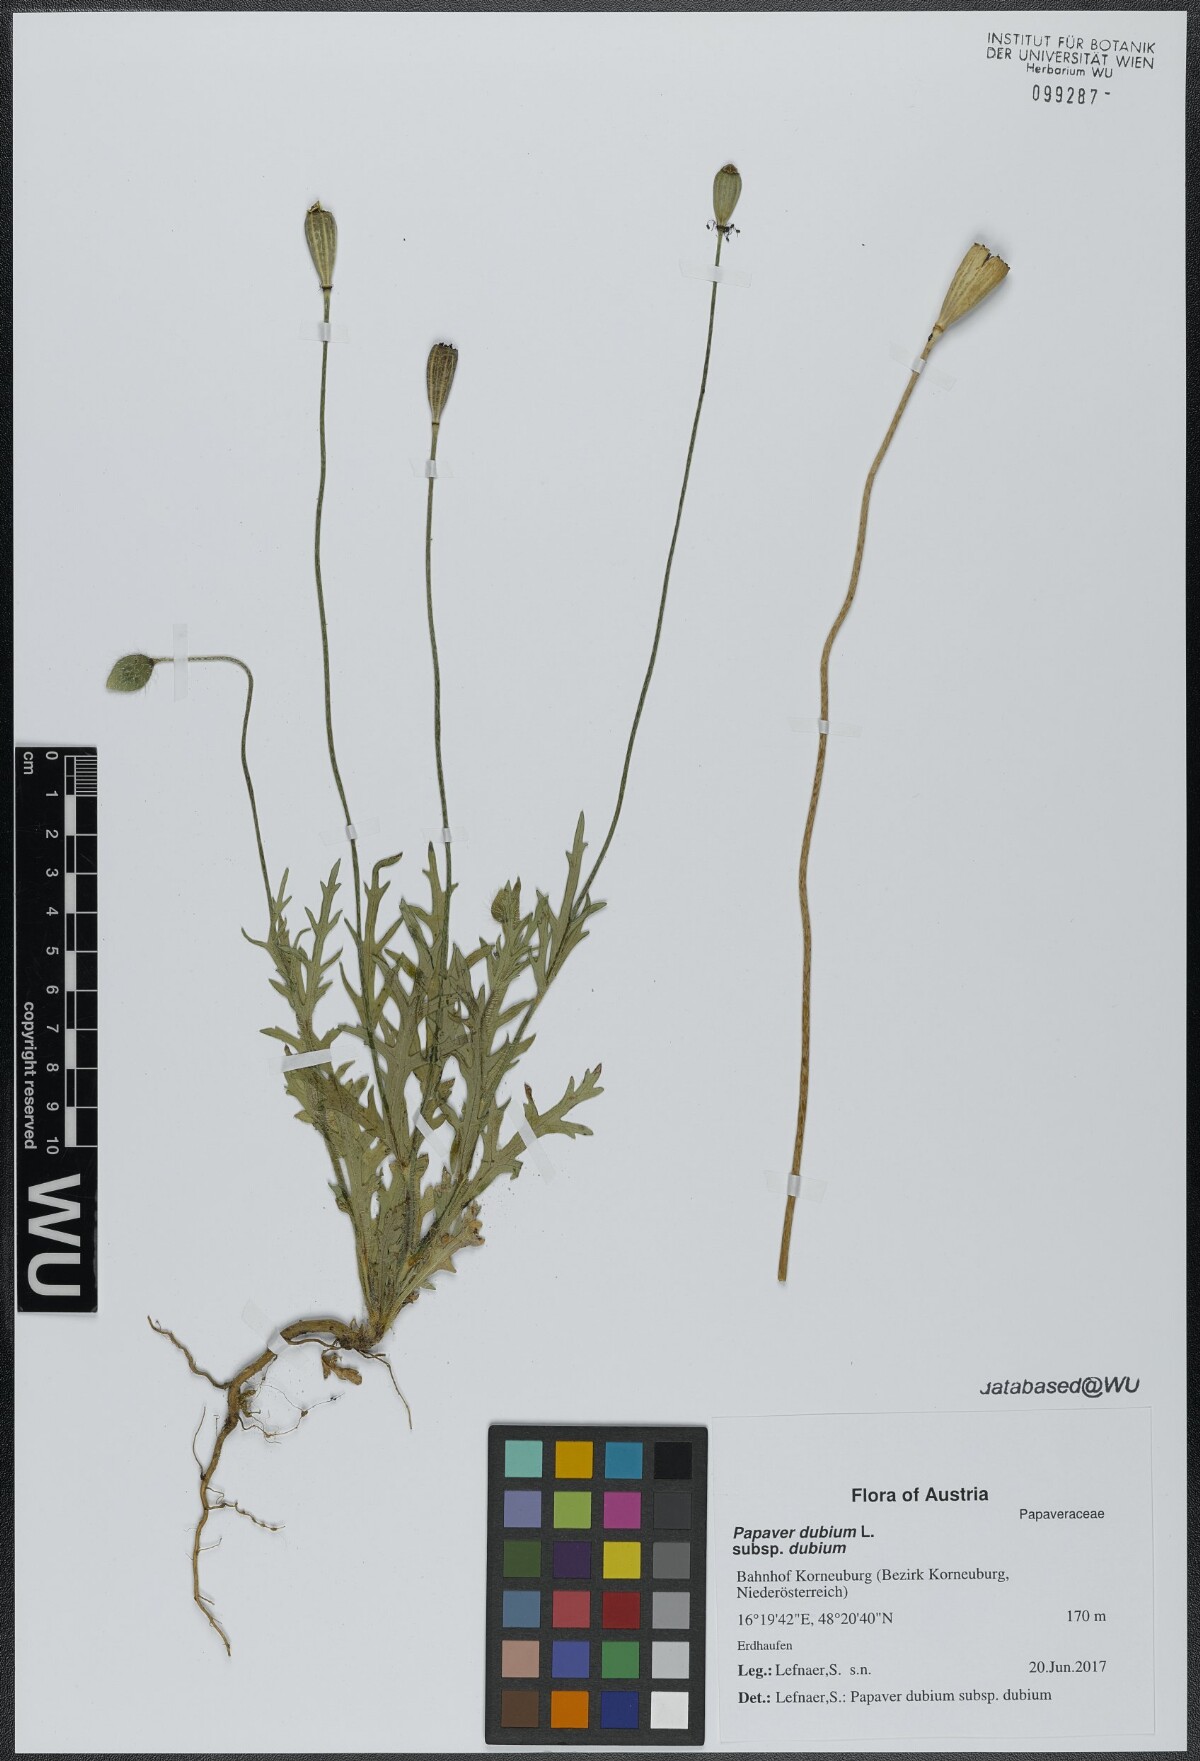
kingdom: Plantae
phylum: Tracheophyta
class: Magnoliopsida
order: Ranunculales
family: Papaveraceae
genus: Papaver
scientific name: Papaver dubium
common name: Long-headed poppy
